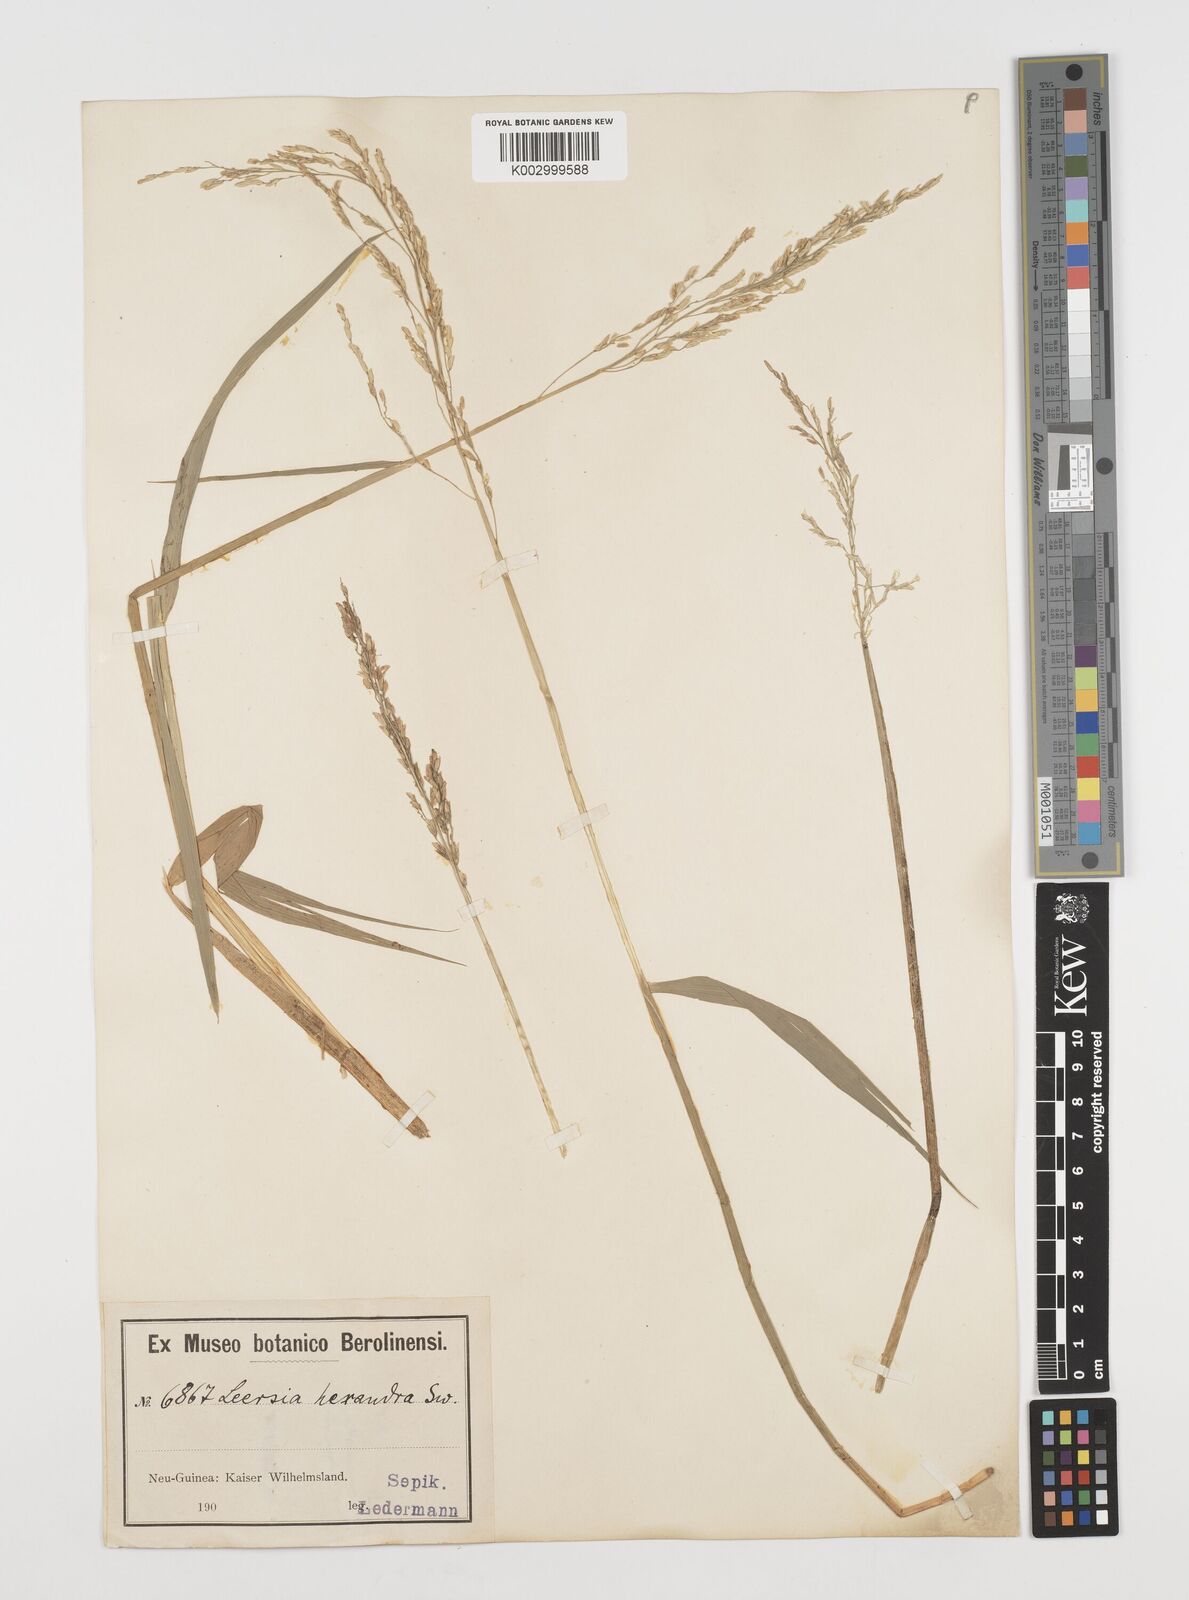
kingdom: Plantae
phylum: Tracheophyta
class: Liliopsida
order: Poales
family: Poaceae
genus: Leersia
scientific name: Leersia hexandra
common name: Southern cut grass
